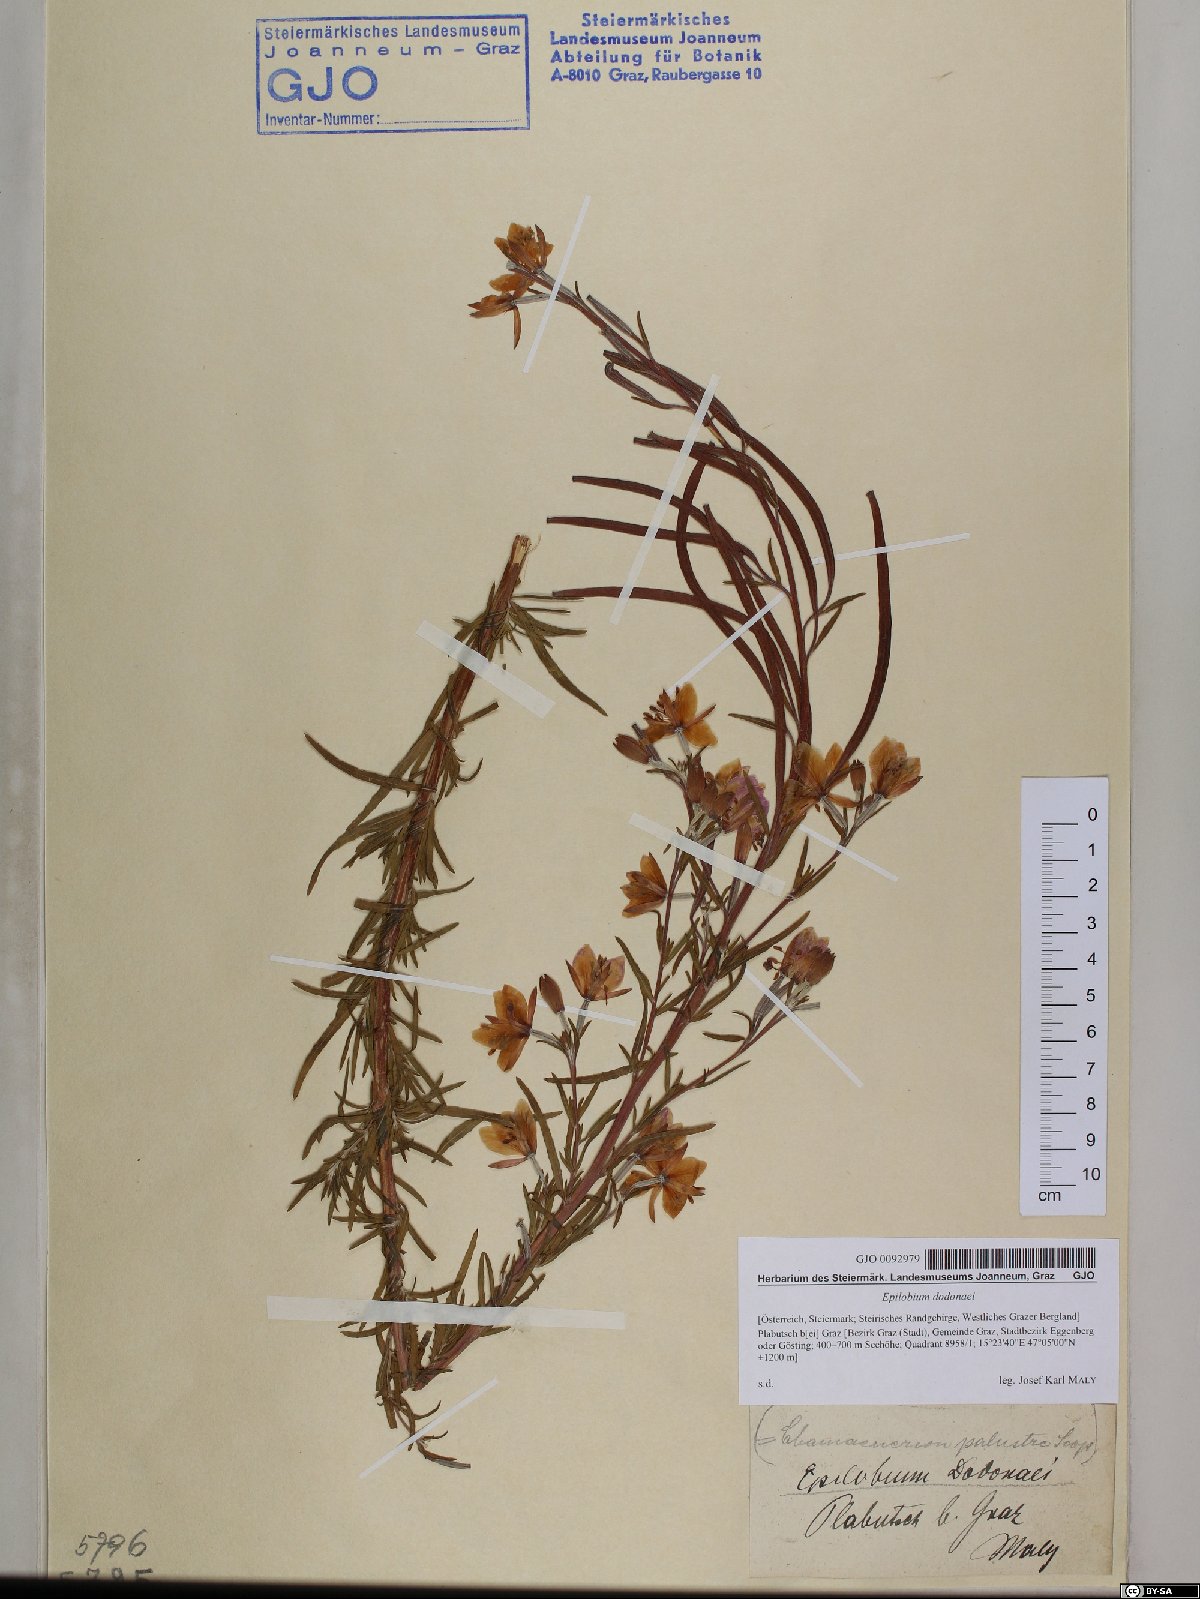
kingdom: Plantae
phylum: Tracheophyta
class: Magnoliopsida
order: Myrtales
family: Onagraceae
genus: Chamaenerion
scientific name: Chamaenerion dodonaei
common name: Rosemary-leaved willowherb
